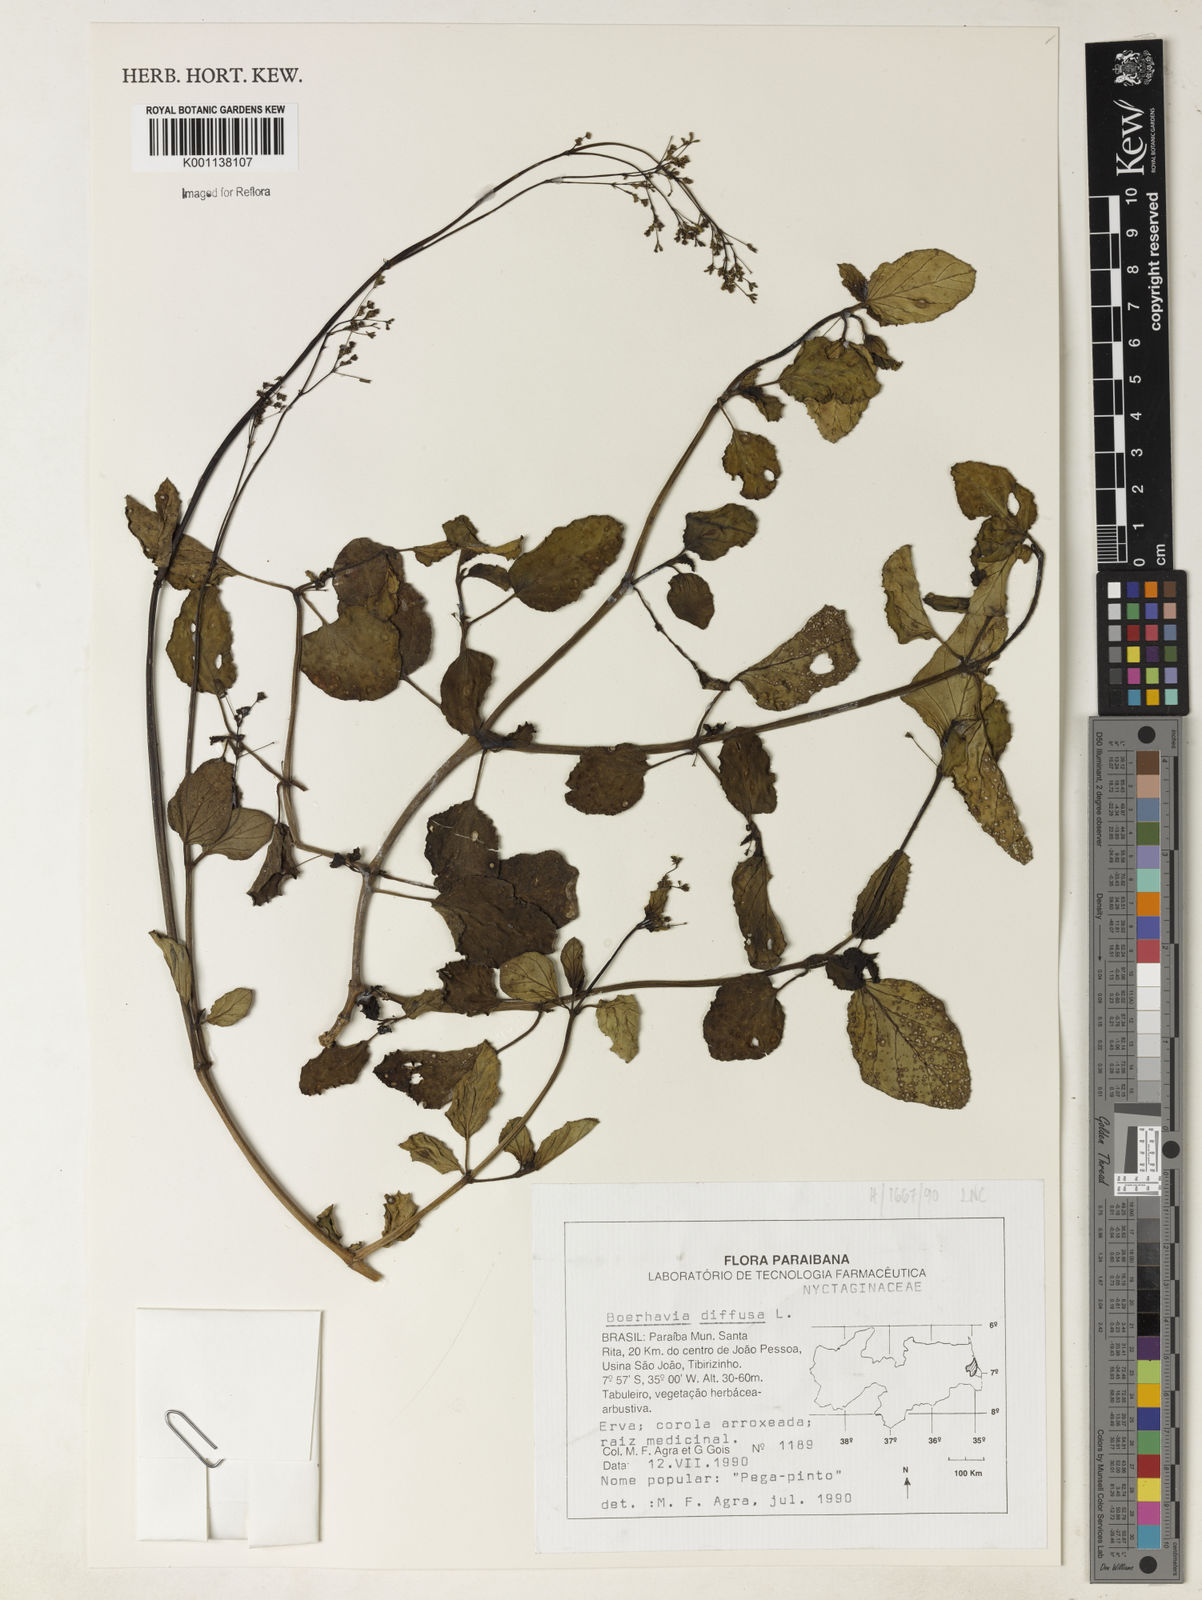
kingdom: Plantae
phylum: Tracheophyta
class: Magnoliopsida
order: Caryophyllales
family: Nyctaginaceae
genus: Boerhavia
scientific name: Boerhavia diffusa
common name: Red spiderling
